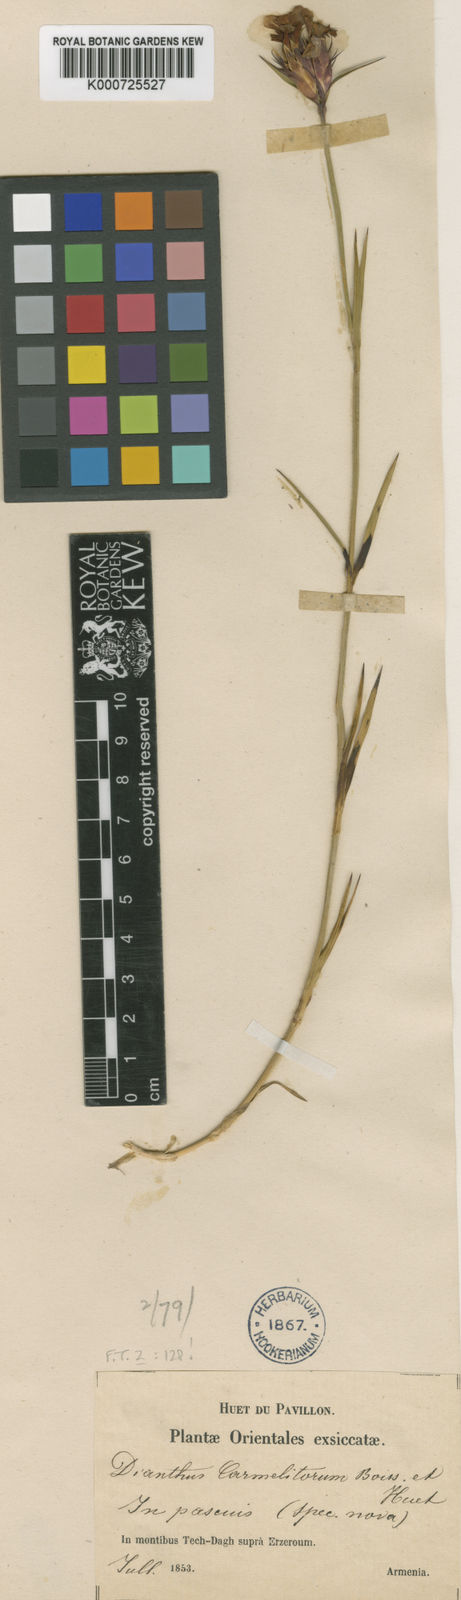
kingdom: Plantae
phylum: Tracheophyta
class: Magnoliopsida
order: Caryophyllales
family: Caryophyllaceae
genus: Dianthus
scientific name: Dianthus carmelitarum
